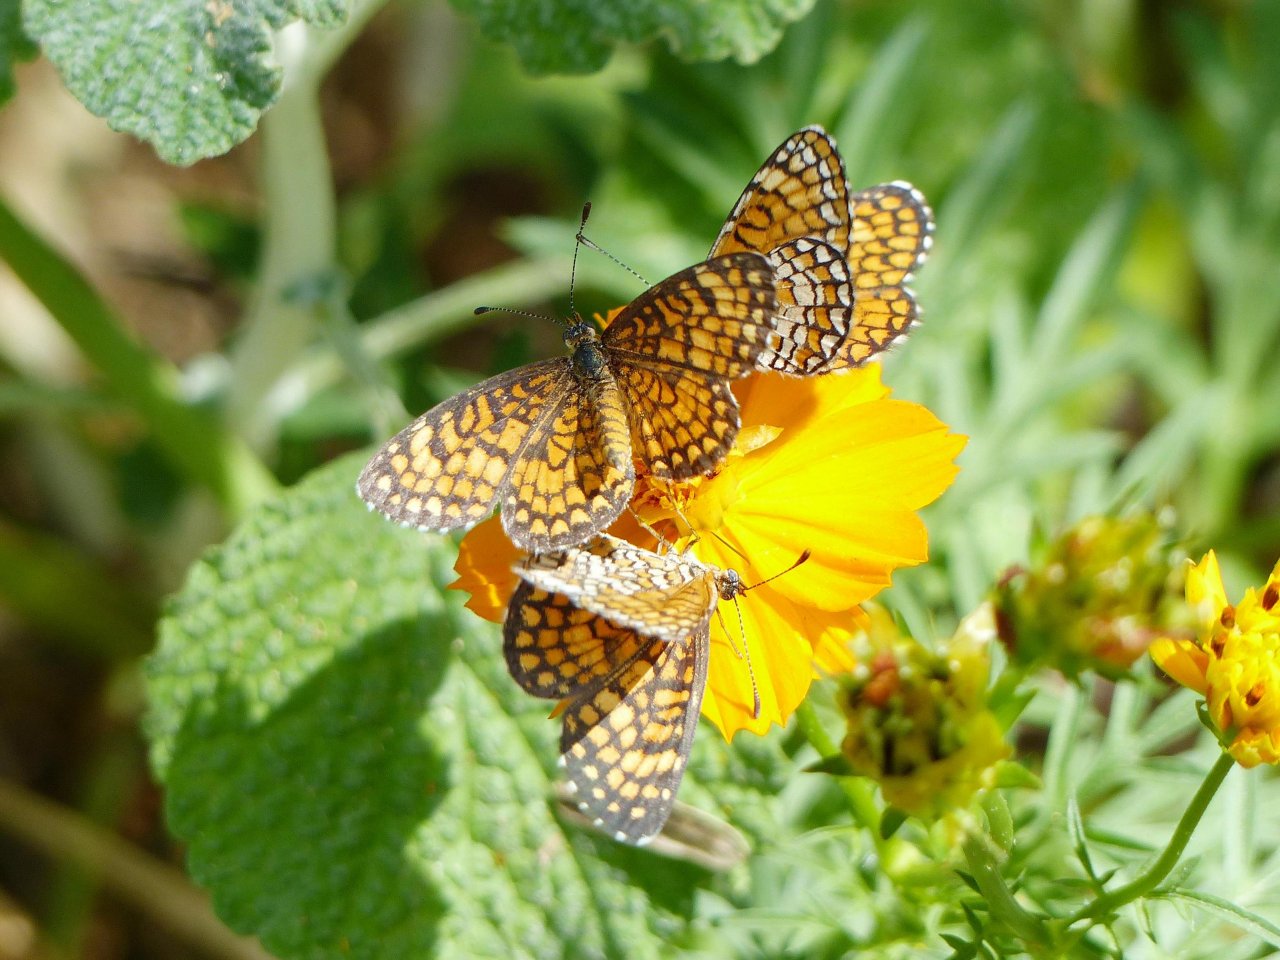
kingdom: Animalia
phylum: Arthropoda
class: Insecta
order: Lepidoptera
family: Nymphalidae
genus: Dymasia
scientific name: Dymasia dymas
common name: Tiny Checkerspot
